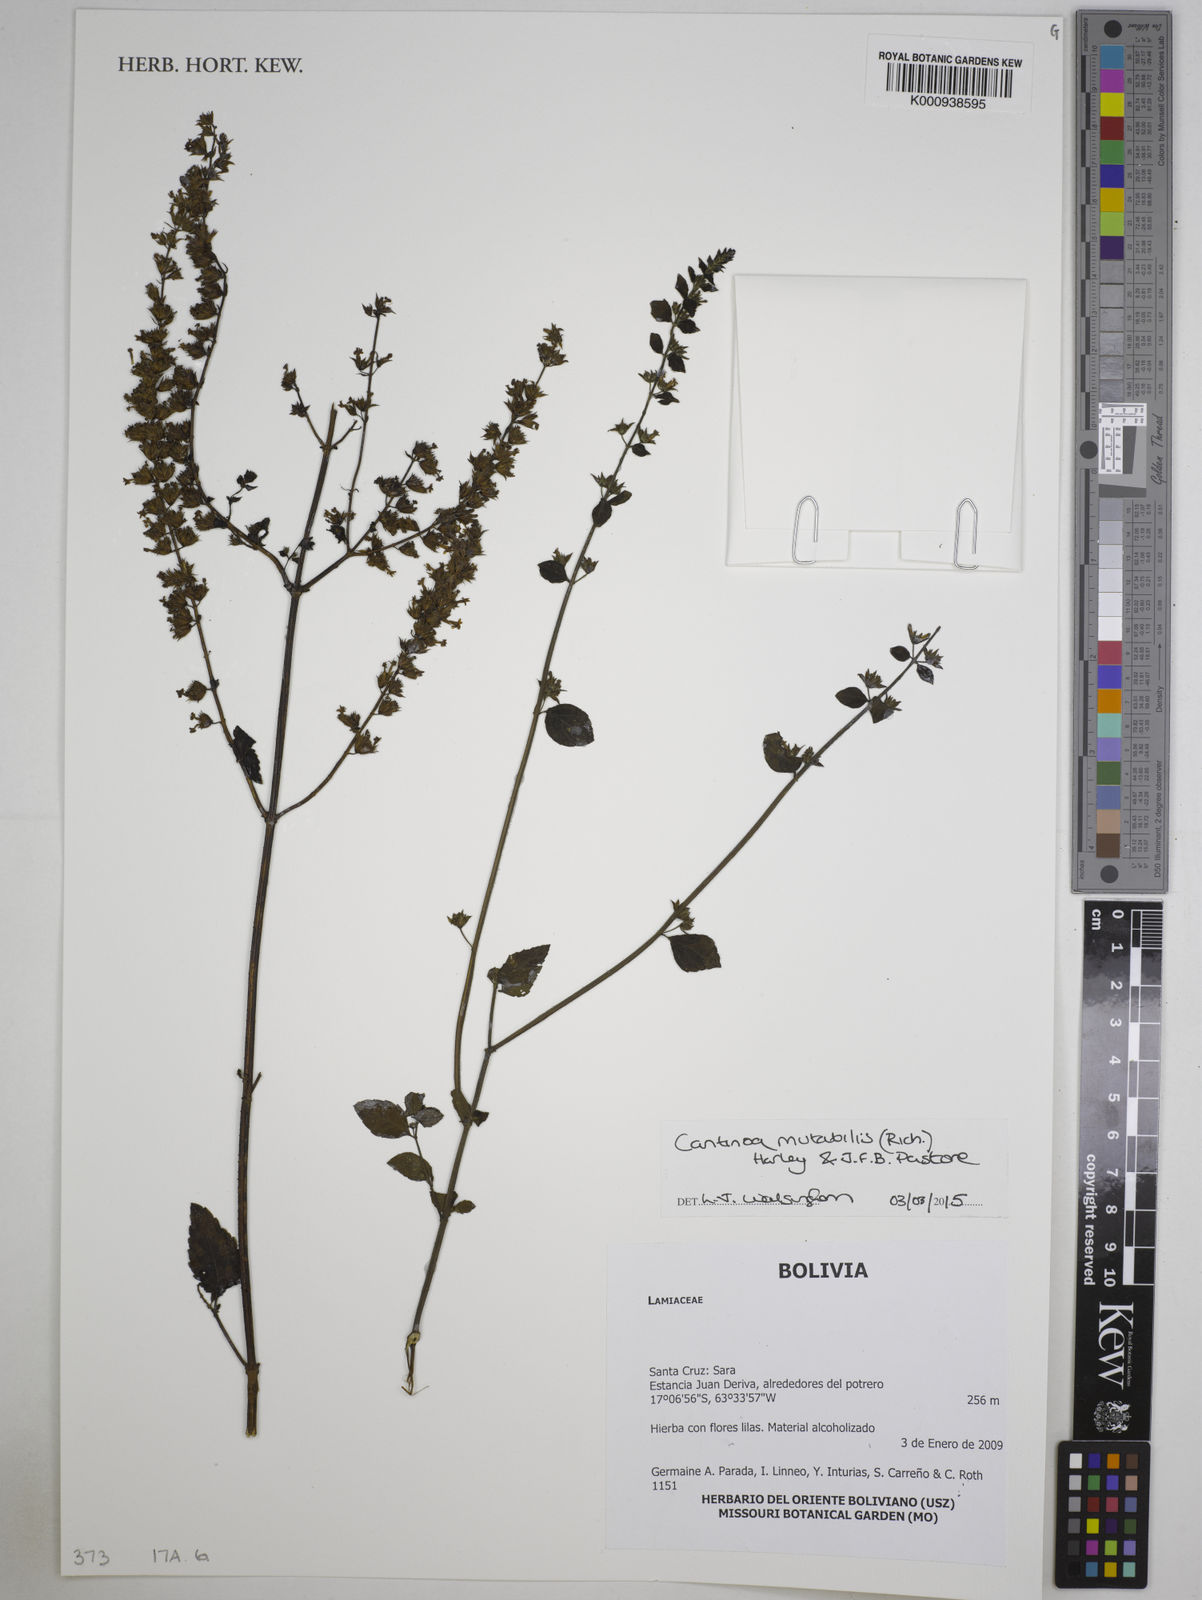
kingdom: Plantae
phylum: Tracheophyta
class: Magnoliopsida
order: Lamiales
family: Lamiaceae
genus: Cantinoa
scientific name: Cantinoa mutabilis
